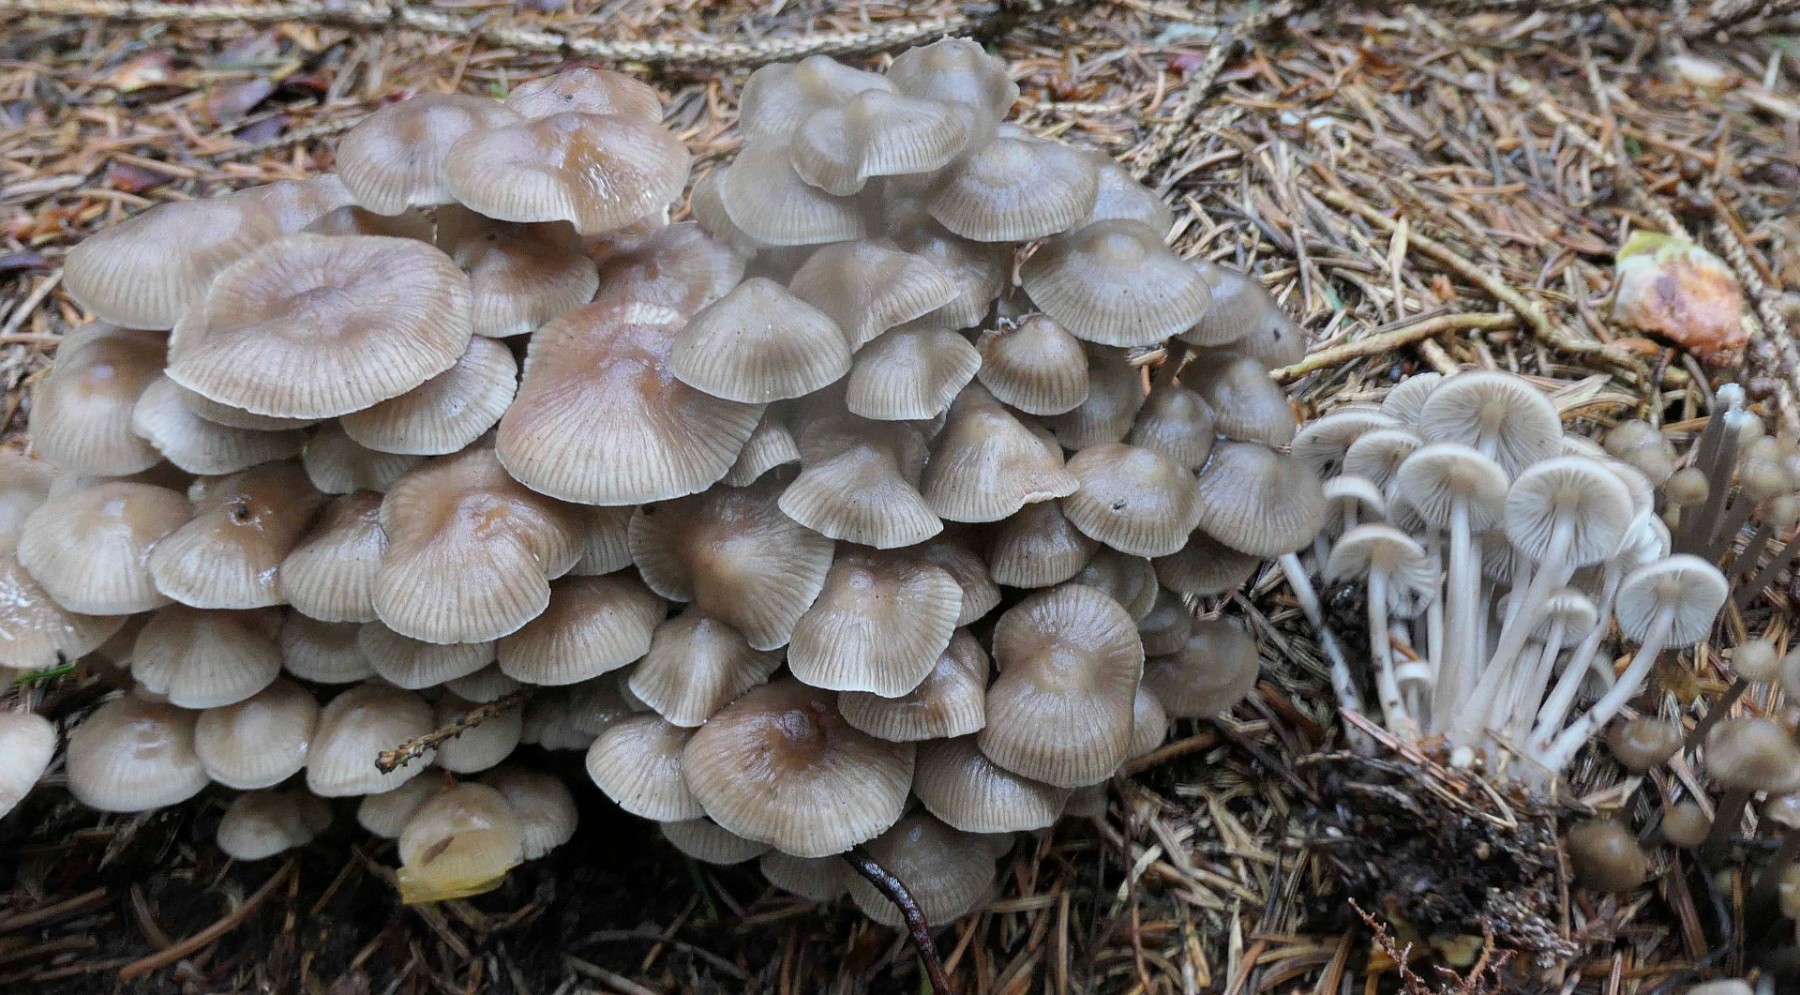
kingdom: Fungi
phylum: Basidiomycota
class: Agaricomycetes
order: Agaricales
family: Mycenaceae
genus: Mycena
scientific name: Mycena inclinata
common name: nikkende huesvamp
